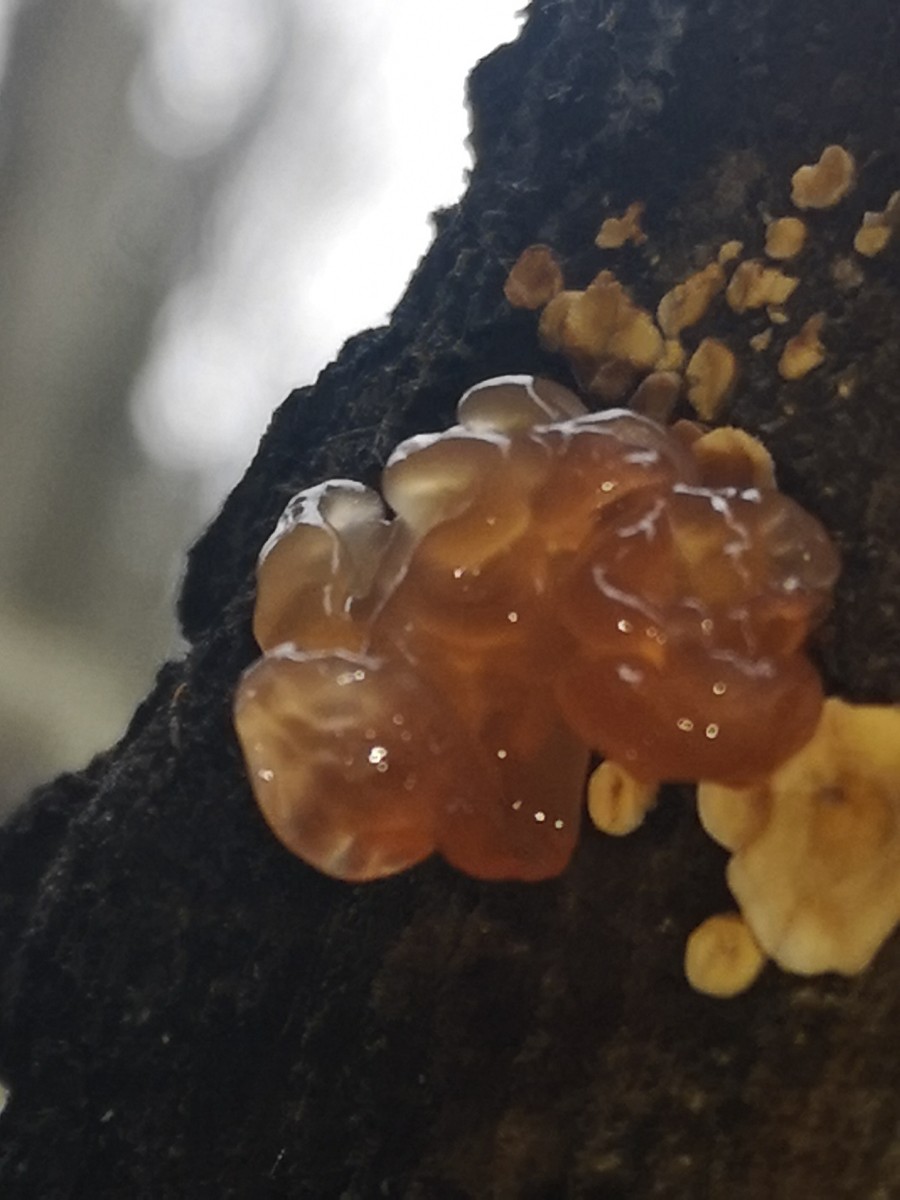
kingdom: Fungi
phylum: Basidiomycota
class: Tremellomycetes
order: Tremellales
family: Tremellaceae
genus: Phaeotremella
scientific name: Phaeotremella frondosa
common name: kæmpe-bævresvamp
